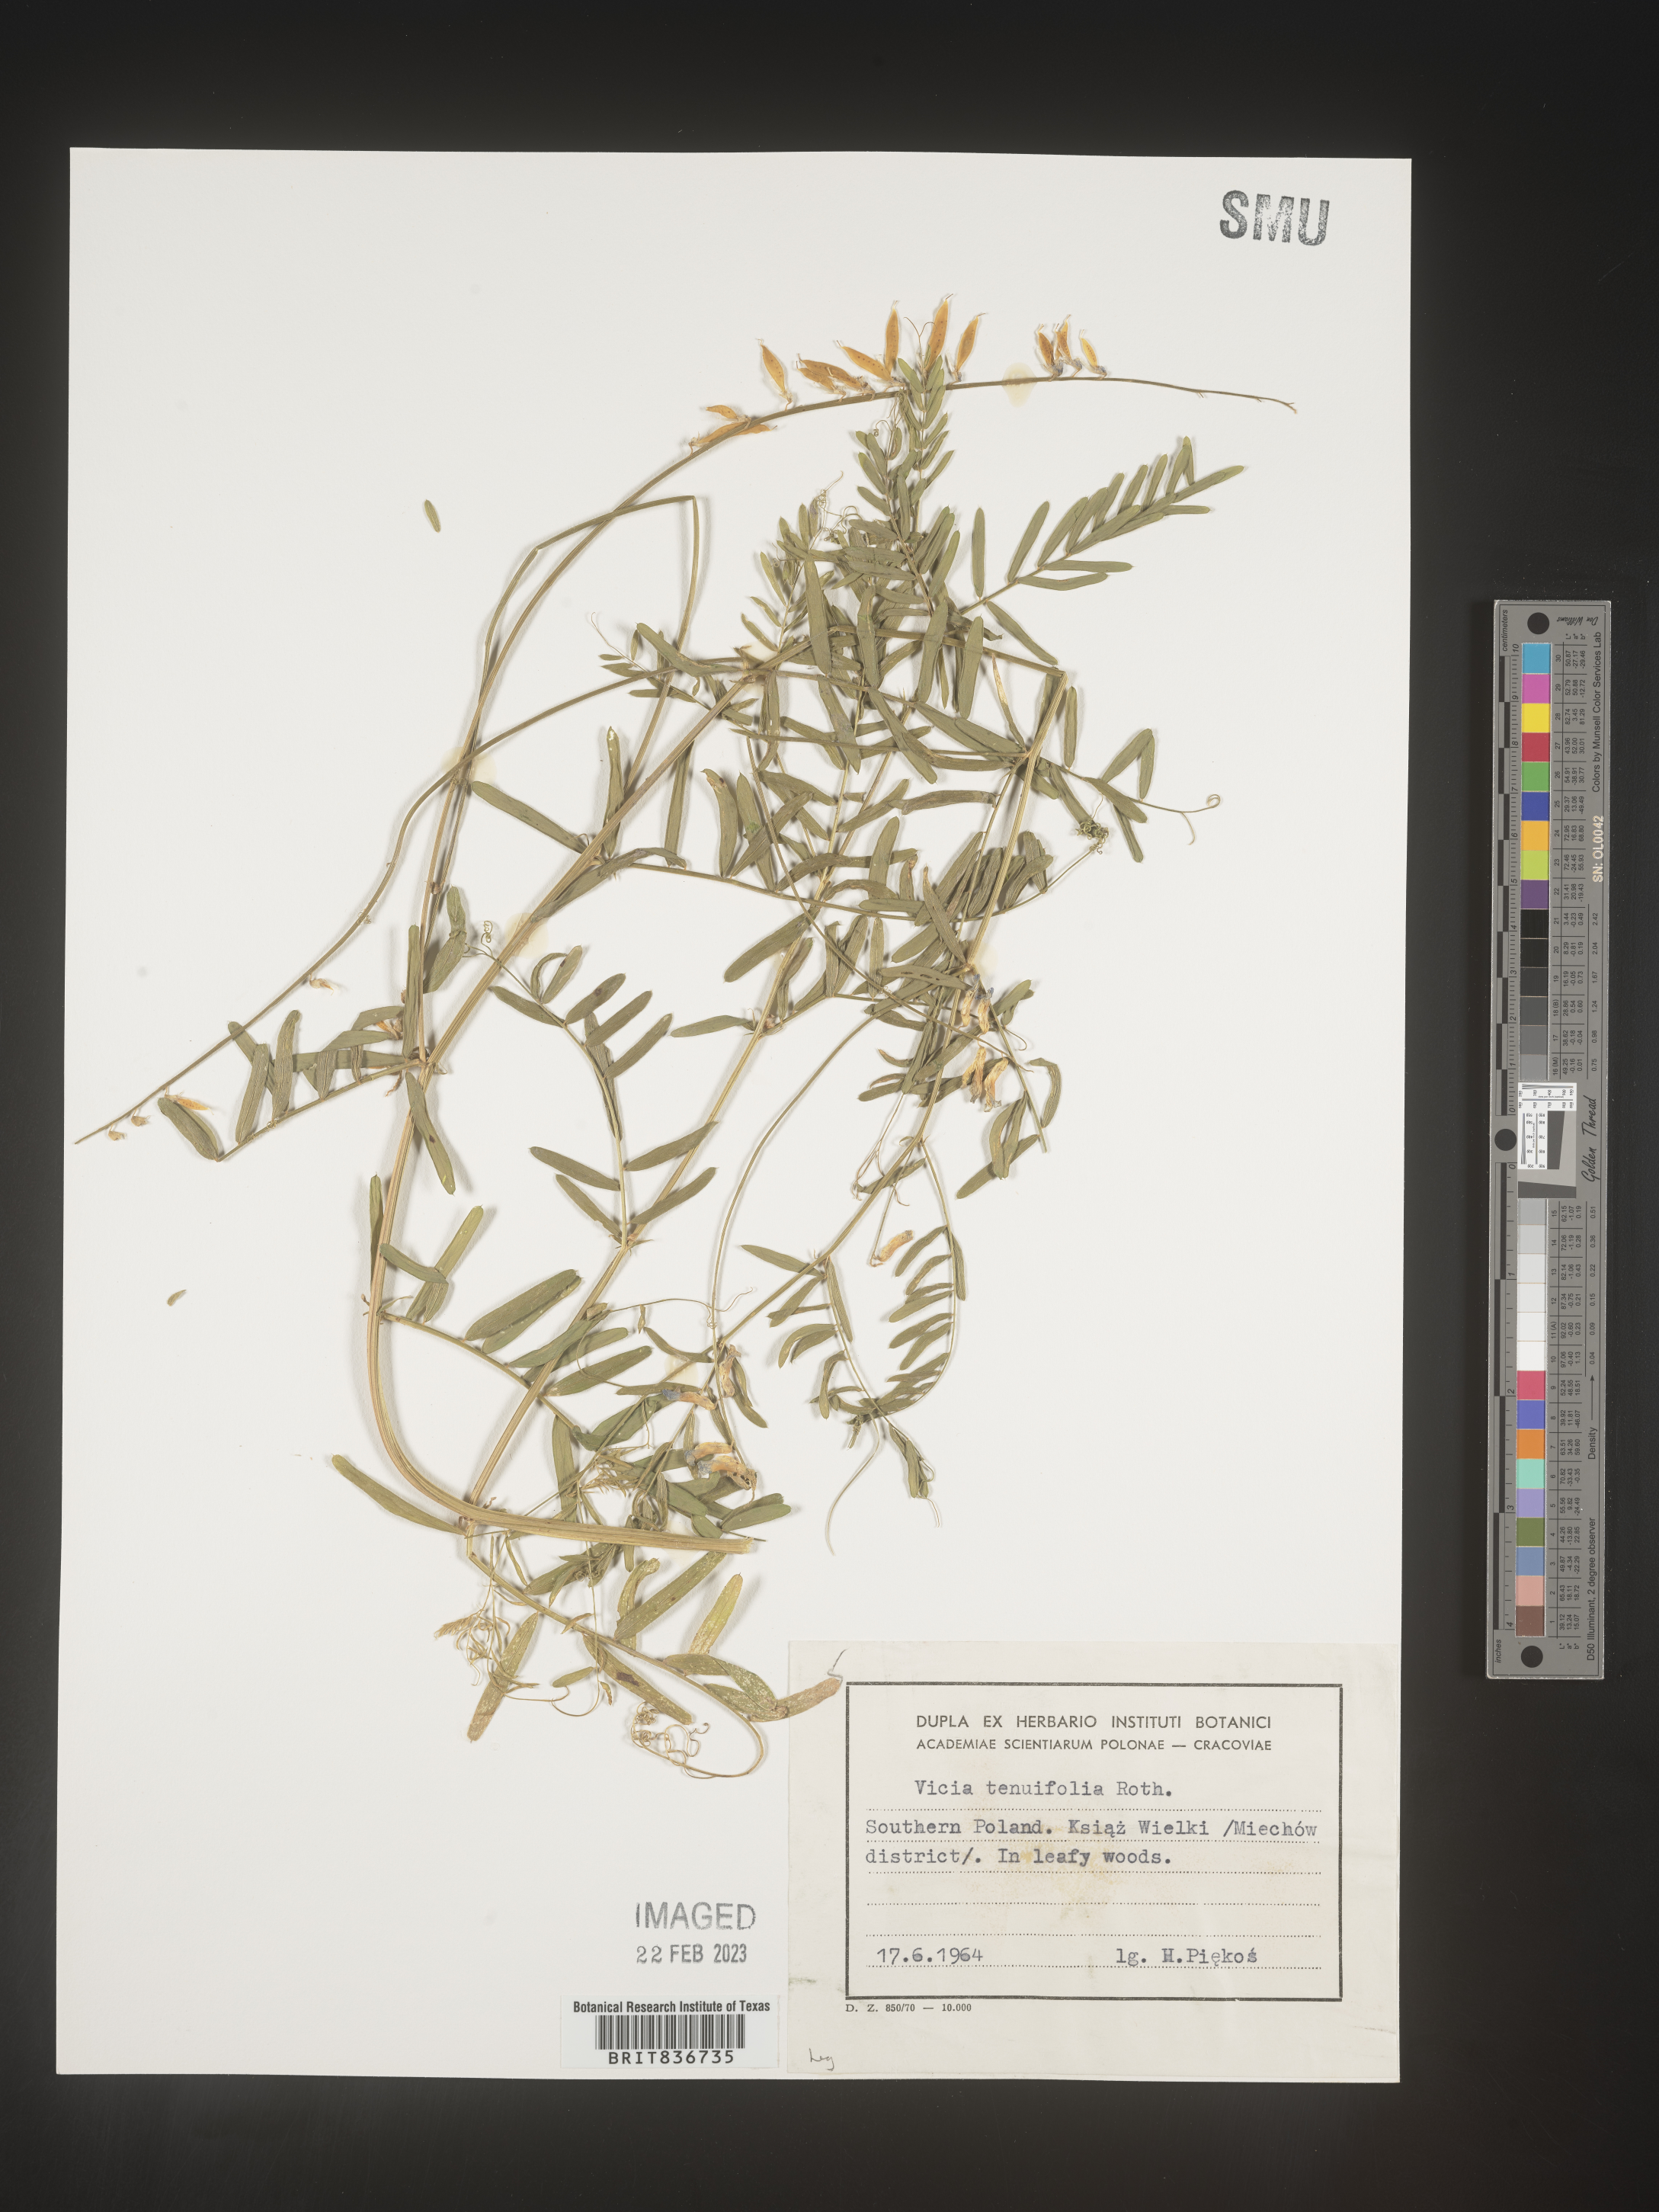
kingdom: Plantae
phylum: Tracheophyta
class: Magnoliopsida
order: Fabales
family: Fabaceae
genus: Vicia
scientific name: Vicia
